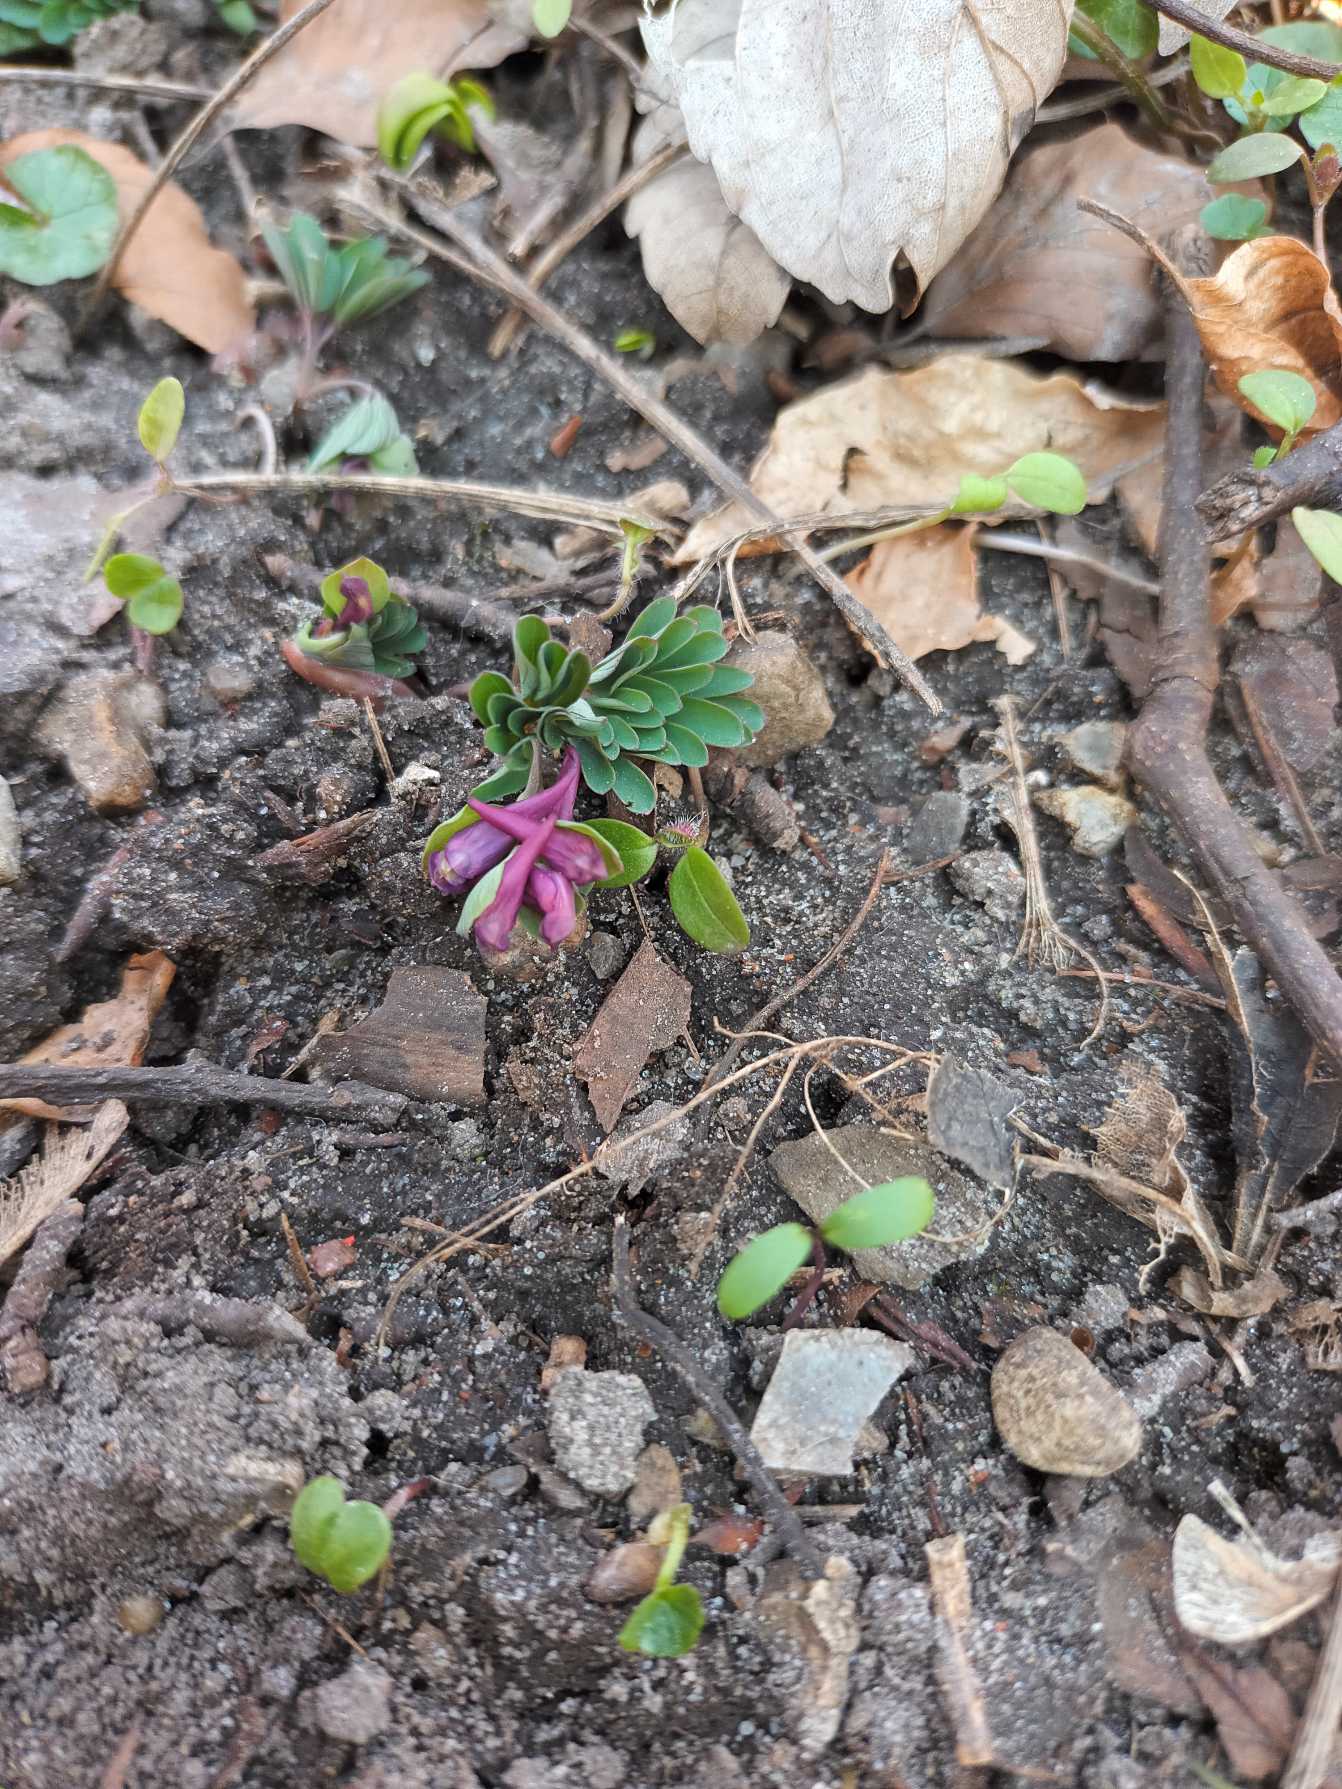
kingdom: Plantae
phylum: Tracheophyta
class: Magnoliopsida
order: Ranunculales
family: Papaveraceae
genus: Corydalis
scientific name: Corydalis intermedia
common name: Liden lærkespore
